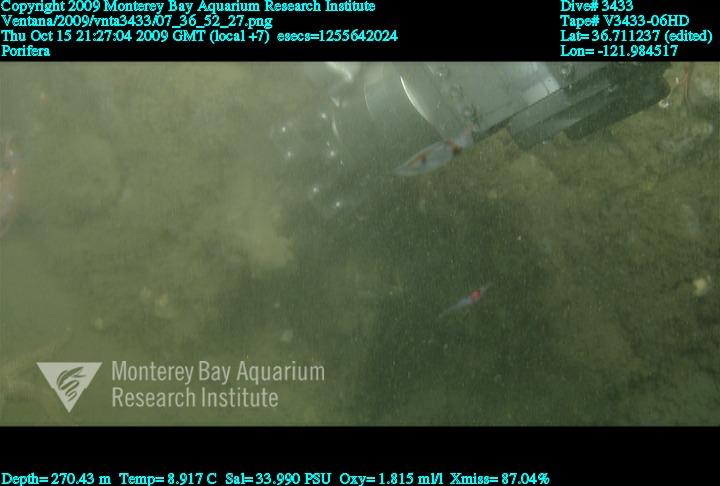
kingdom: Animalia
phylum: Porifera
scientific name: Porifera
